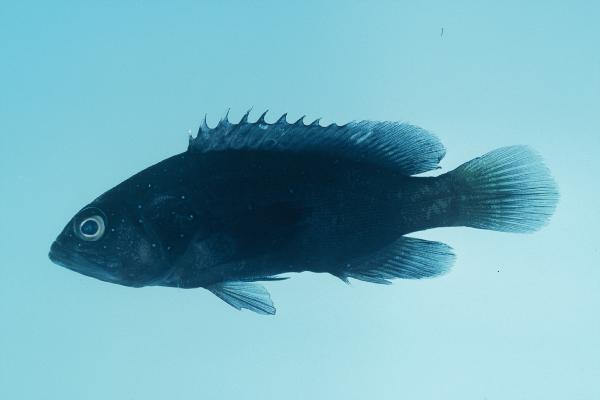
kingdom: Animalia
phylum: Chordata
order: Perciformes
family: Serranidae
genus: Cephalopholis
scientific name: Cephalopholis argus
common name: Peacock grouper
